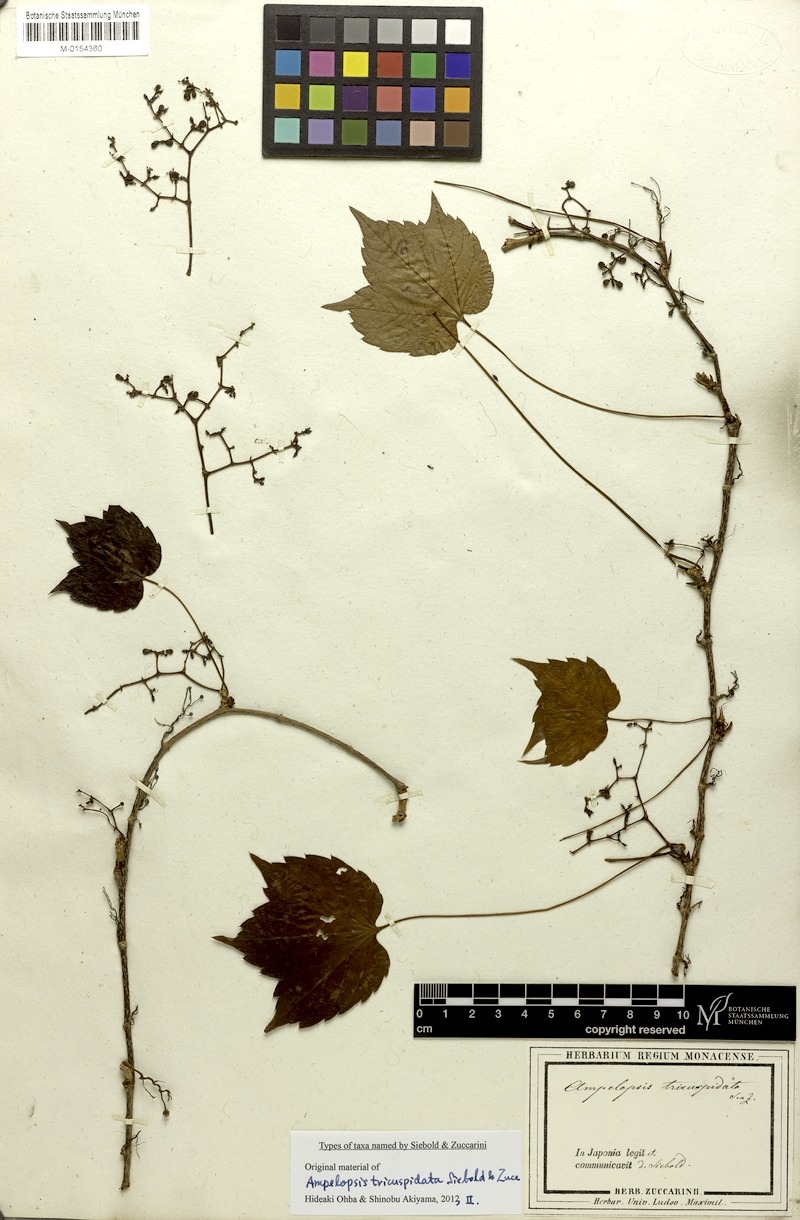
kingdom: Plantae
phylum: Tracheophyta
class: Magnoliopsida
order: Vitales
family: Vitaceae
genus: Parthenocissus
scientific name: Parthenocissus tricuspidata
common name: Boston ivy
